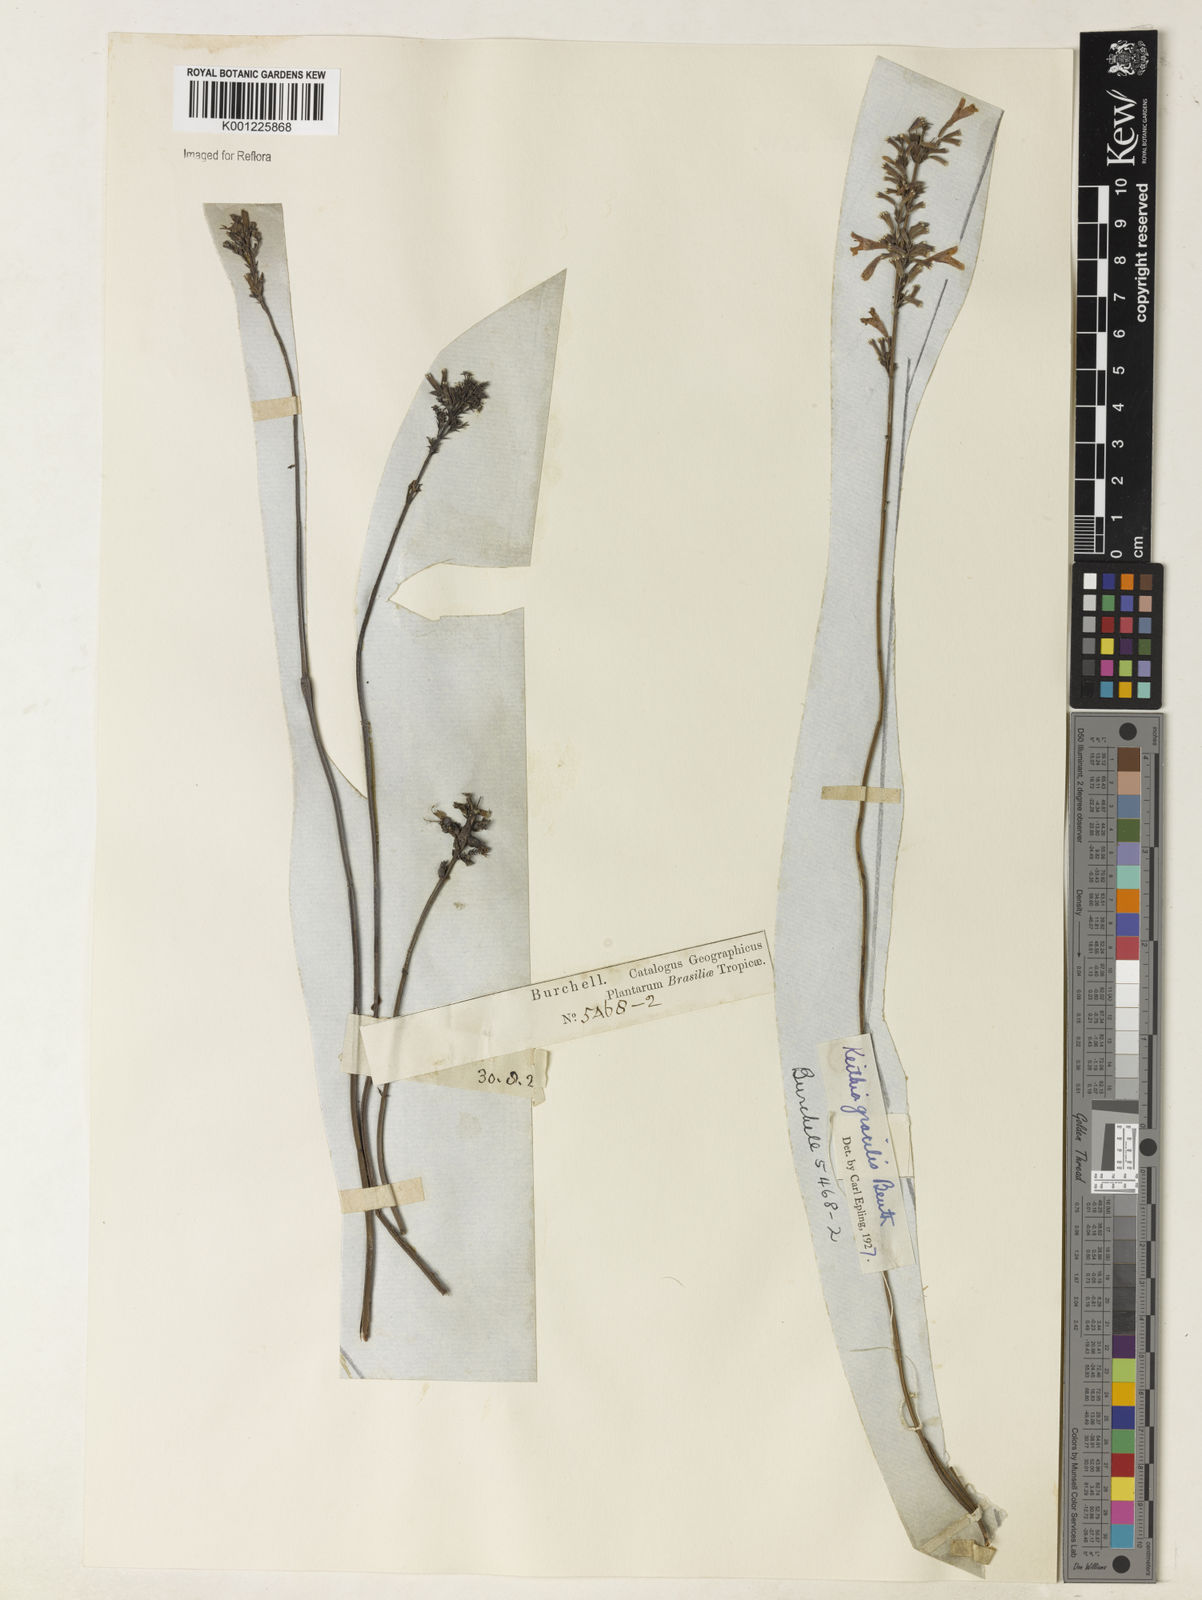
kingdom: Plantae
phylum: Tracheophyta
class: Magnoliopsida
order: Lamiales
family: Lamiaceae
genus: Rhabdocaulon
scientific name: Rhabdocaulon gracile
